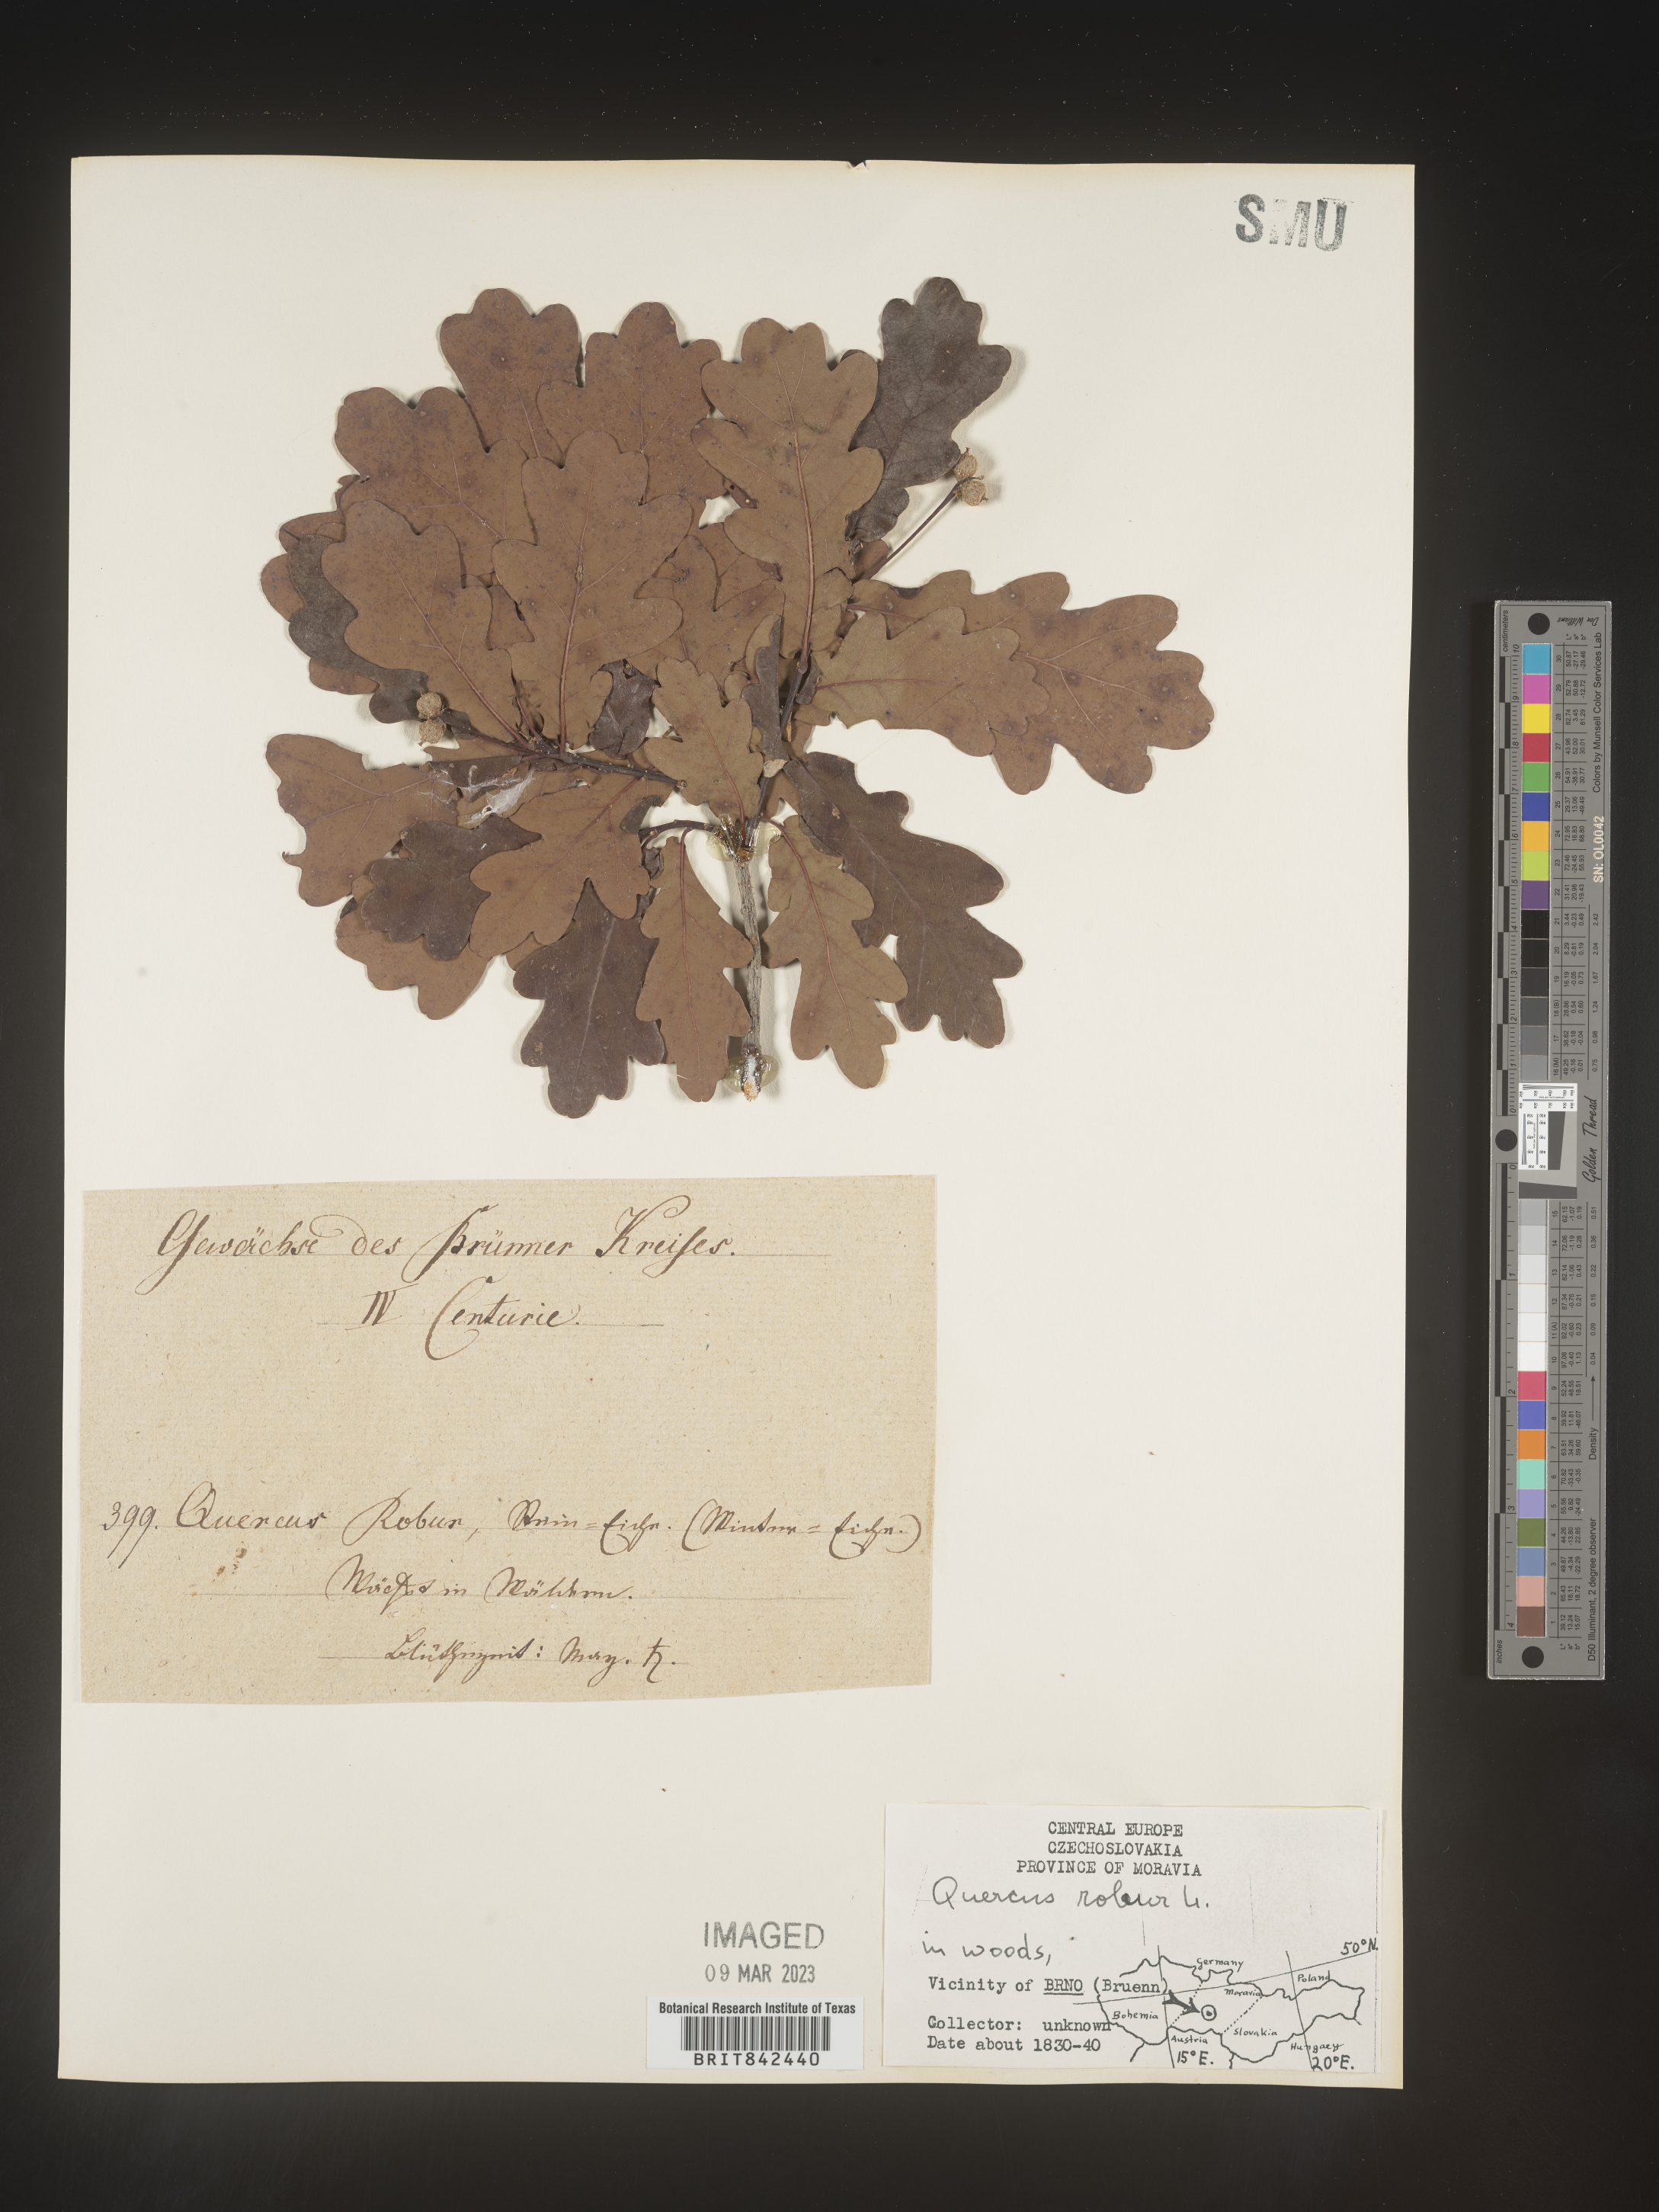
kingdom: Plantae
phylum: Tracheophyta
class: Magnoliopsida
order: Fagales
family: Fagaceae
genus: Quercus
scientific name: Quercus
